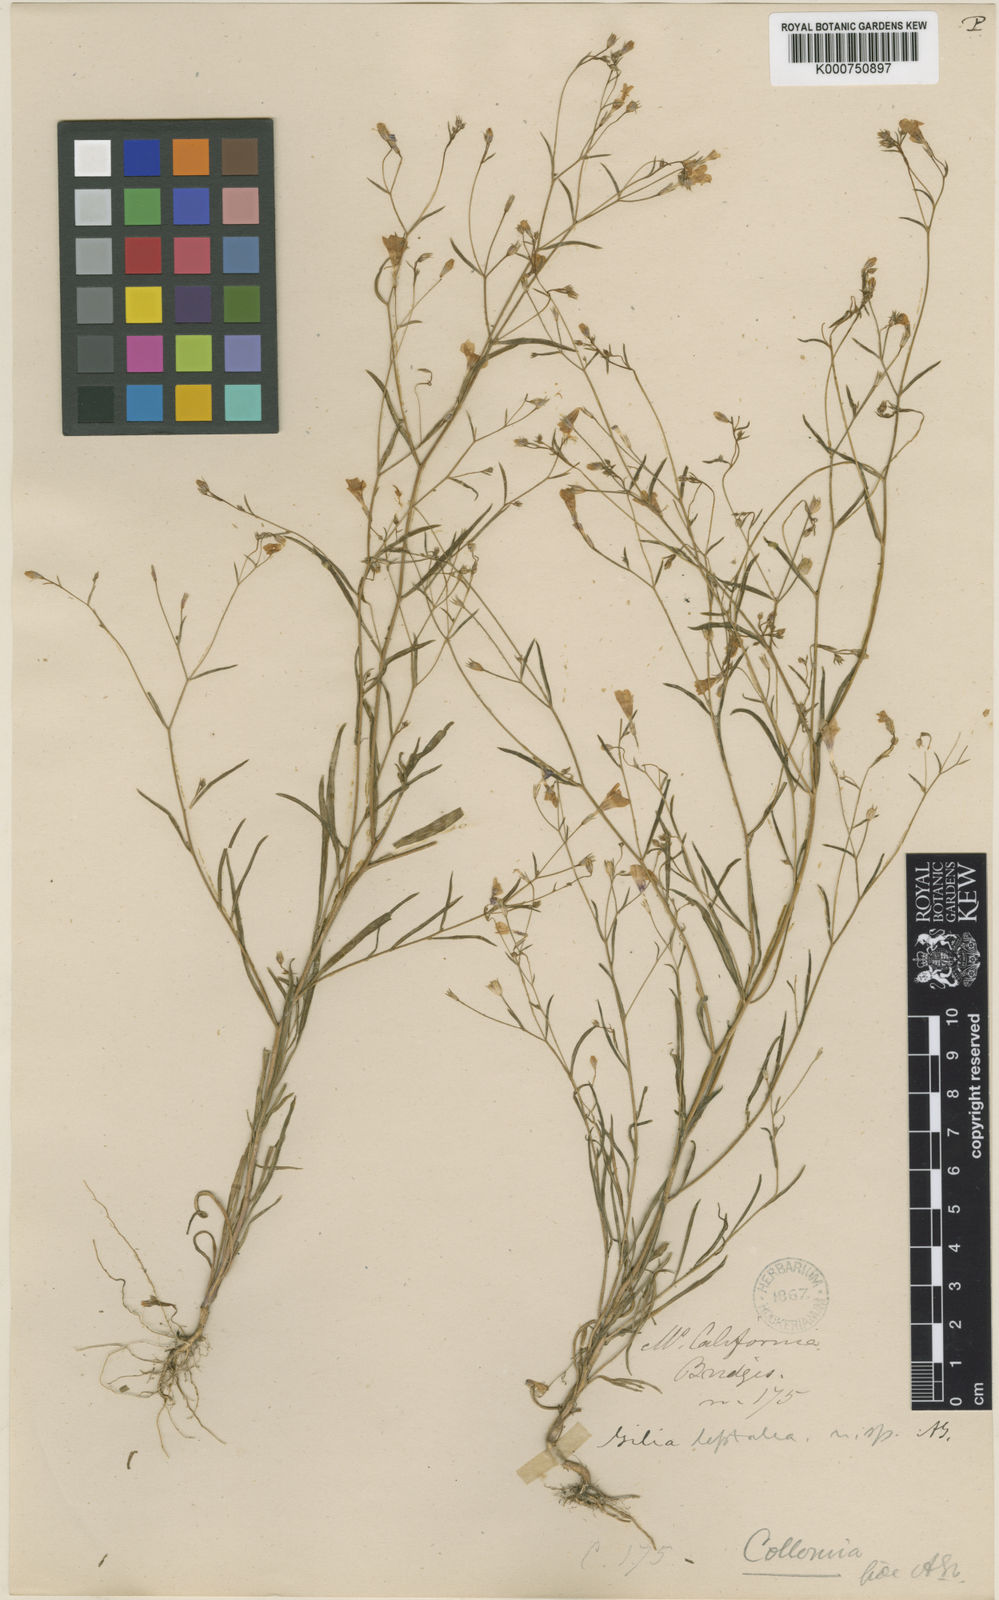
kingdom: Plantae
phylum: Tracheophyta
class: Magnoliopsida
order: Ericales
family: Polemoniaceae
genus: Navarretia
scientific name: Navarretia leptalea
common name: Bridges' pincushionplant
